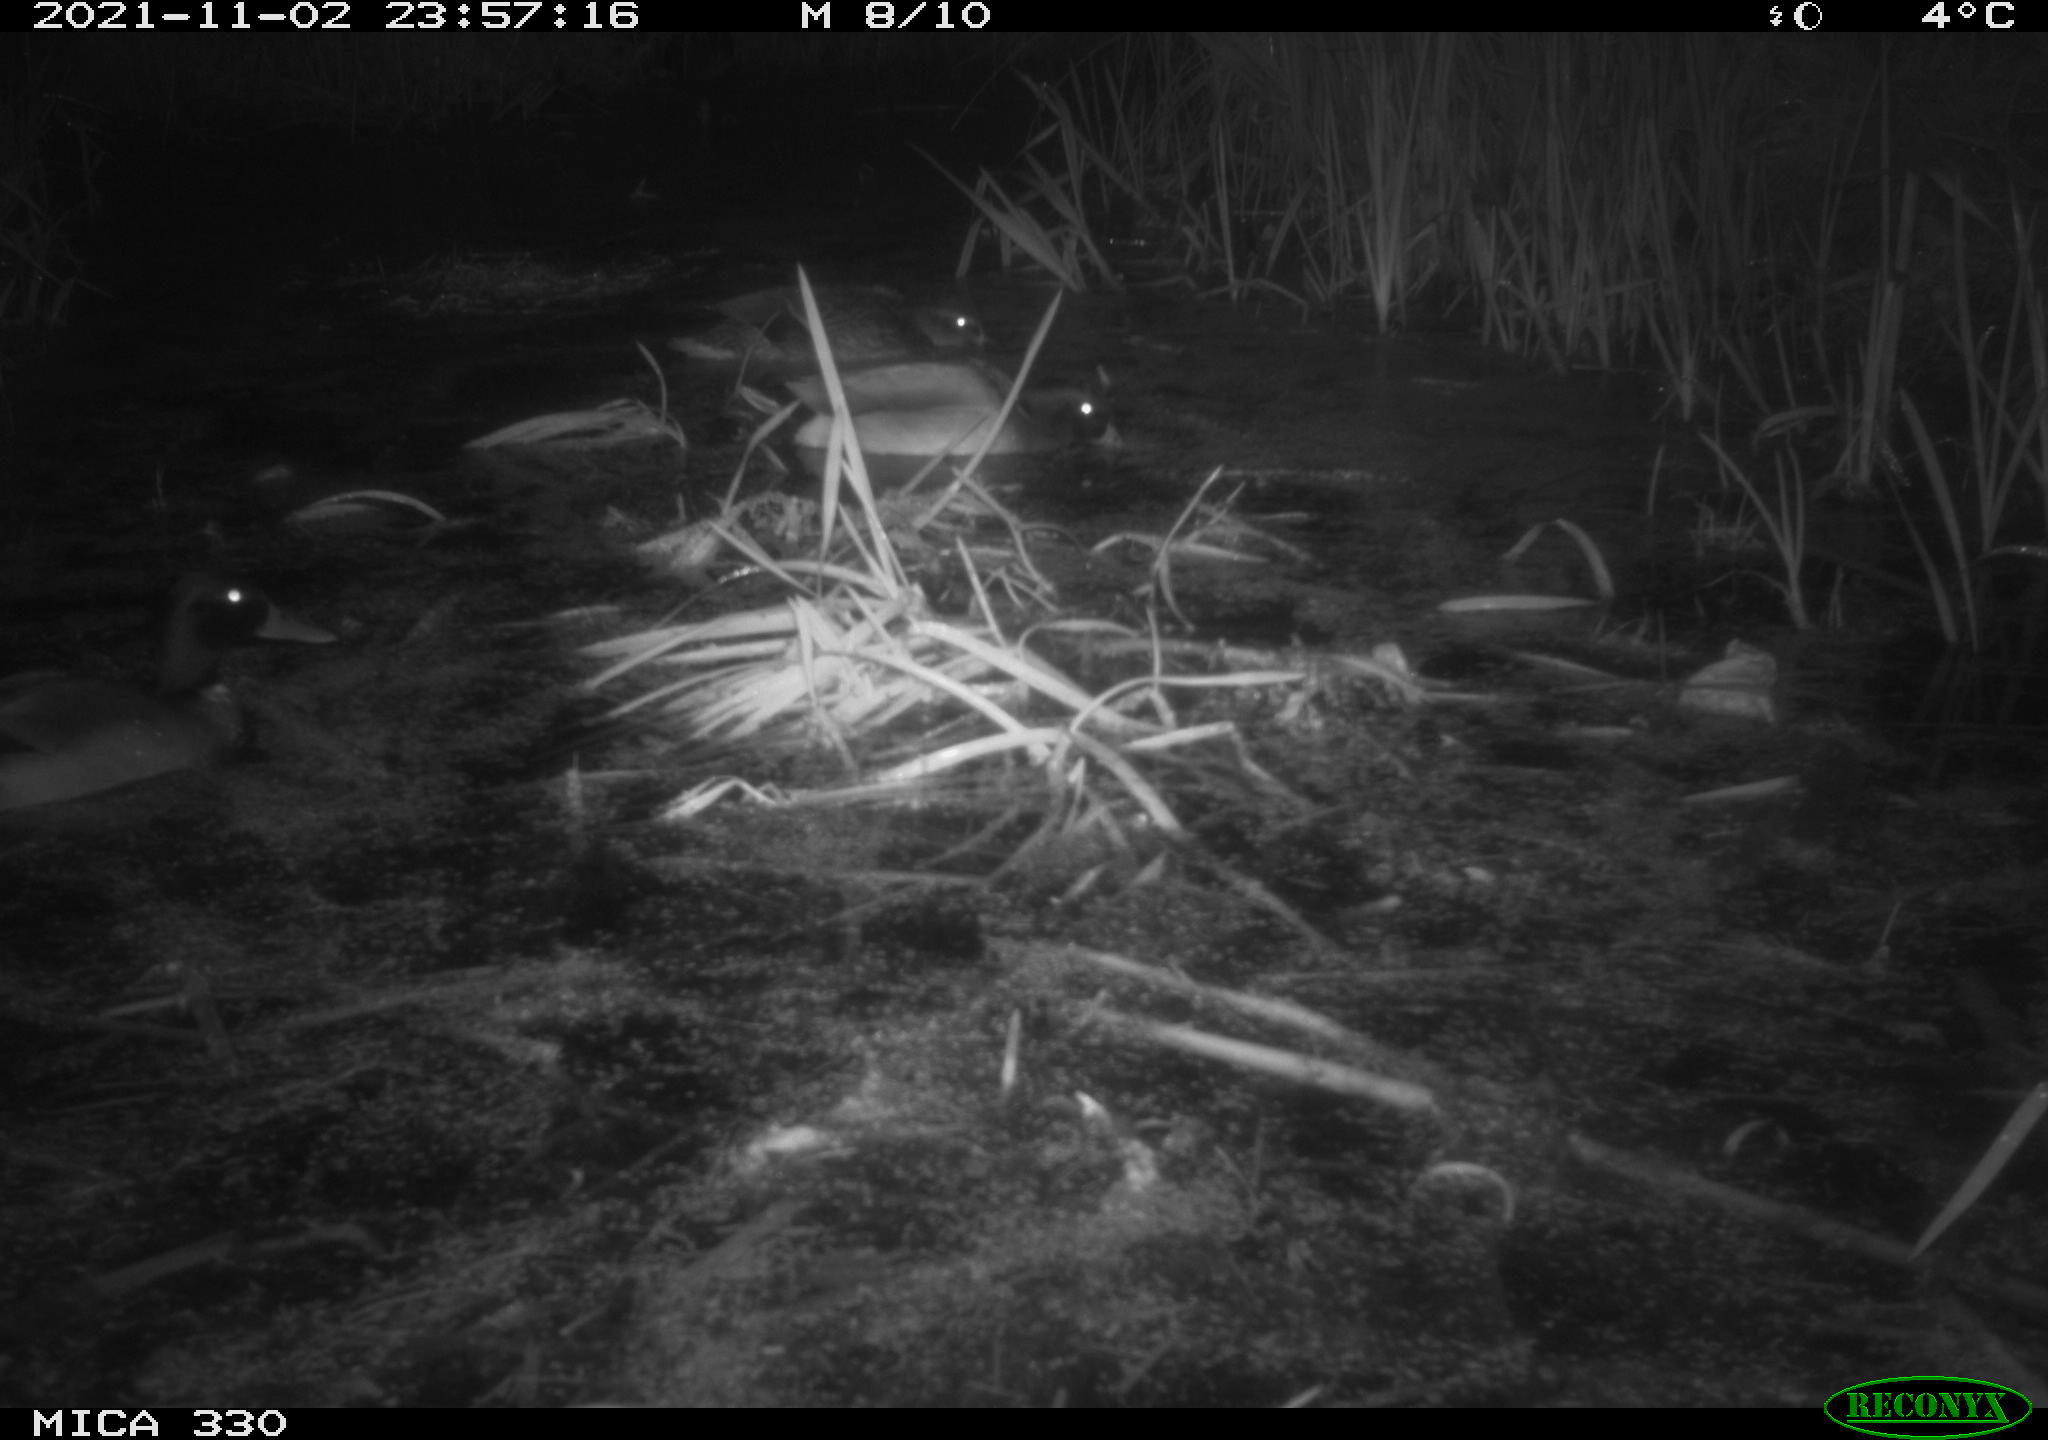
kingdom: Animalia
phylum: Chordata
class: Aves
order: Anseriformes
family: Anatidae
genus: Anas
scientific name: Anas platyrhynchos
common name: Mallard
